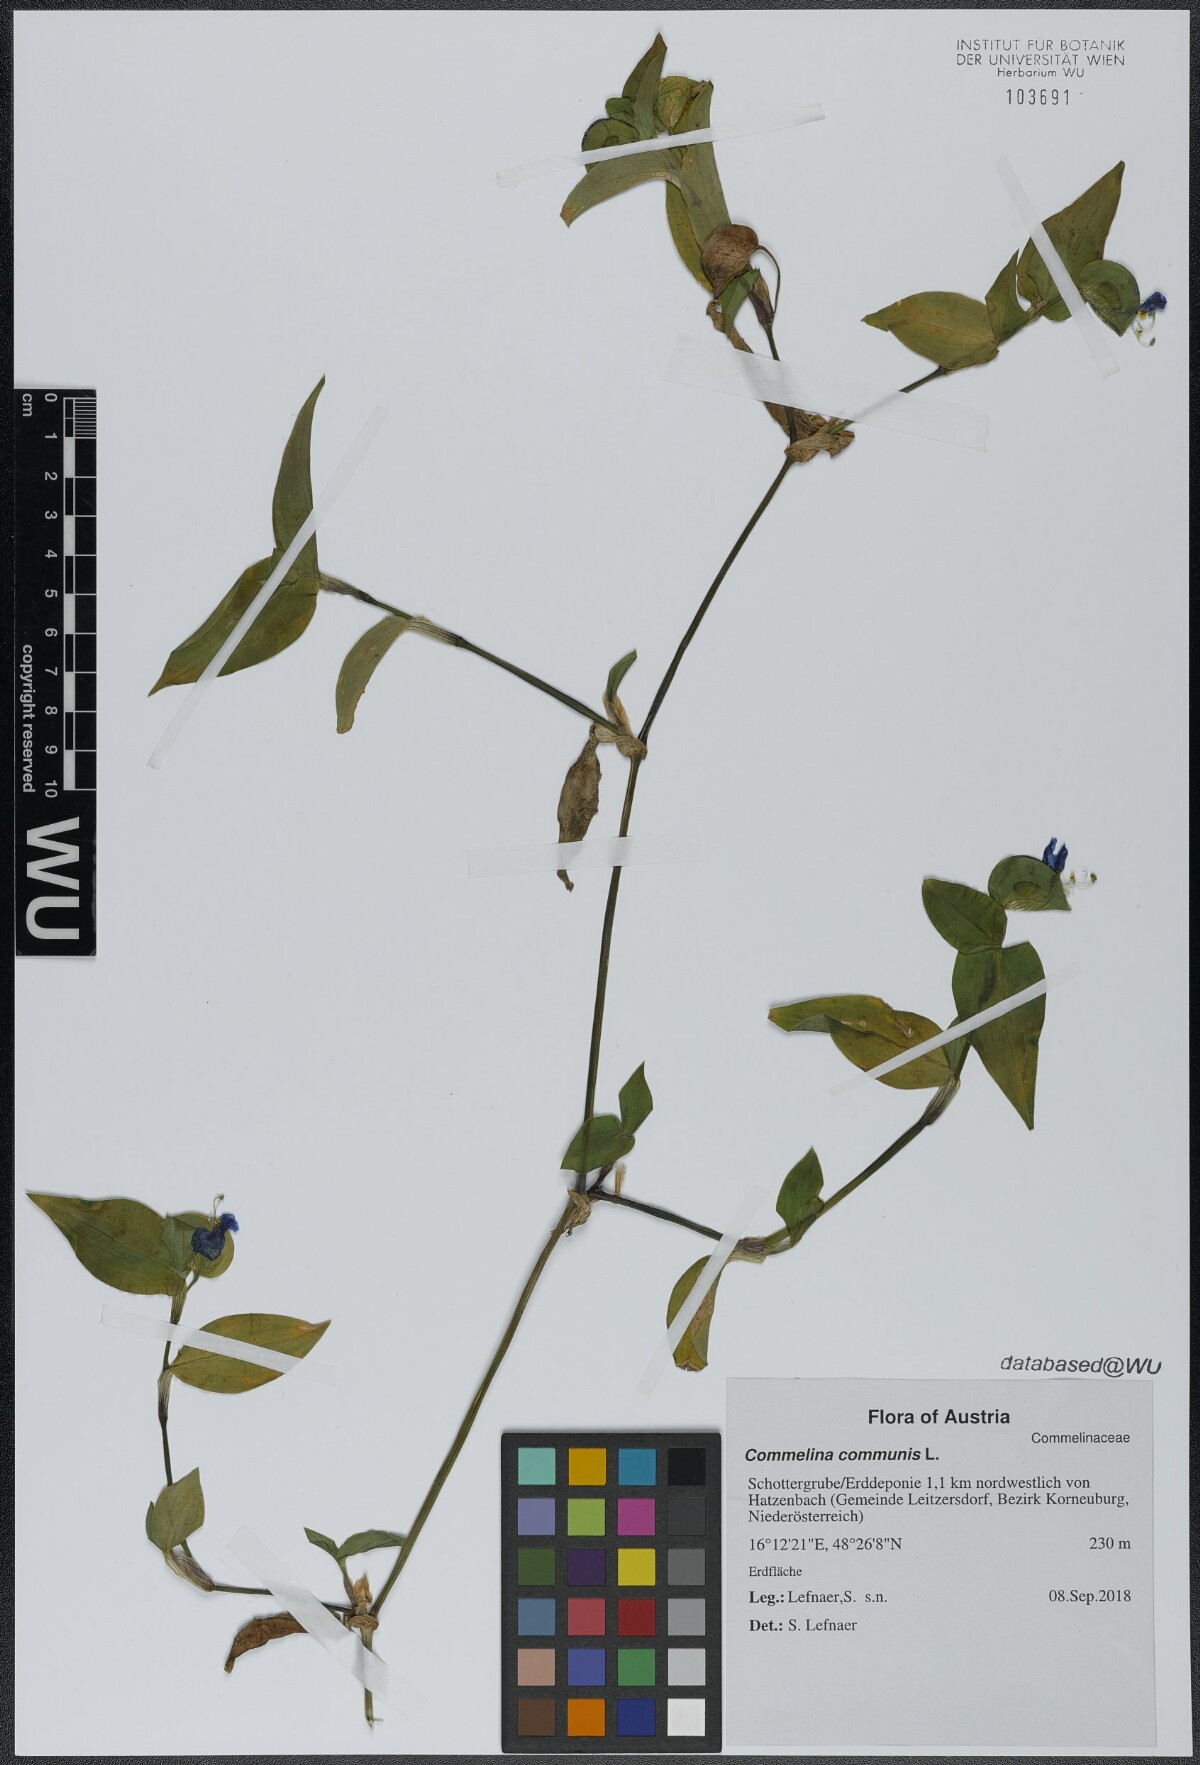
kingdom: Plantae
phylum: Tracheophyta
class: Liliopsida
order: Commelinales
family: Commelinaceae
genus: Commelina
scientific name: Commelina communis
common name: Asiatic dayflower
